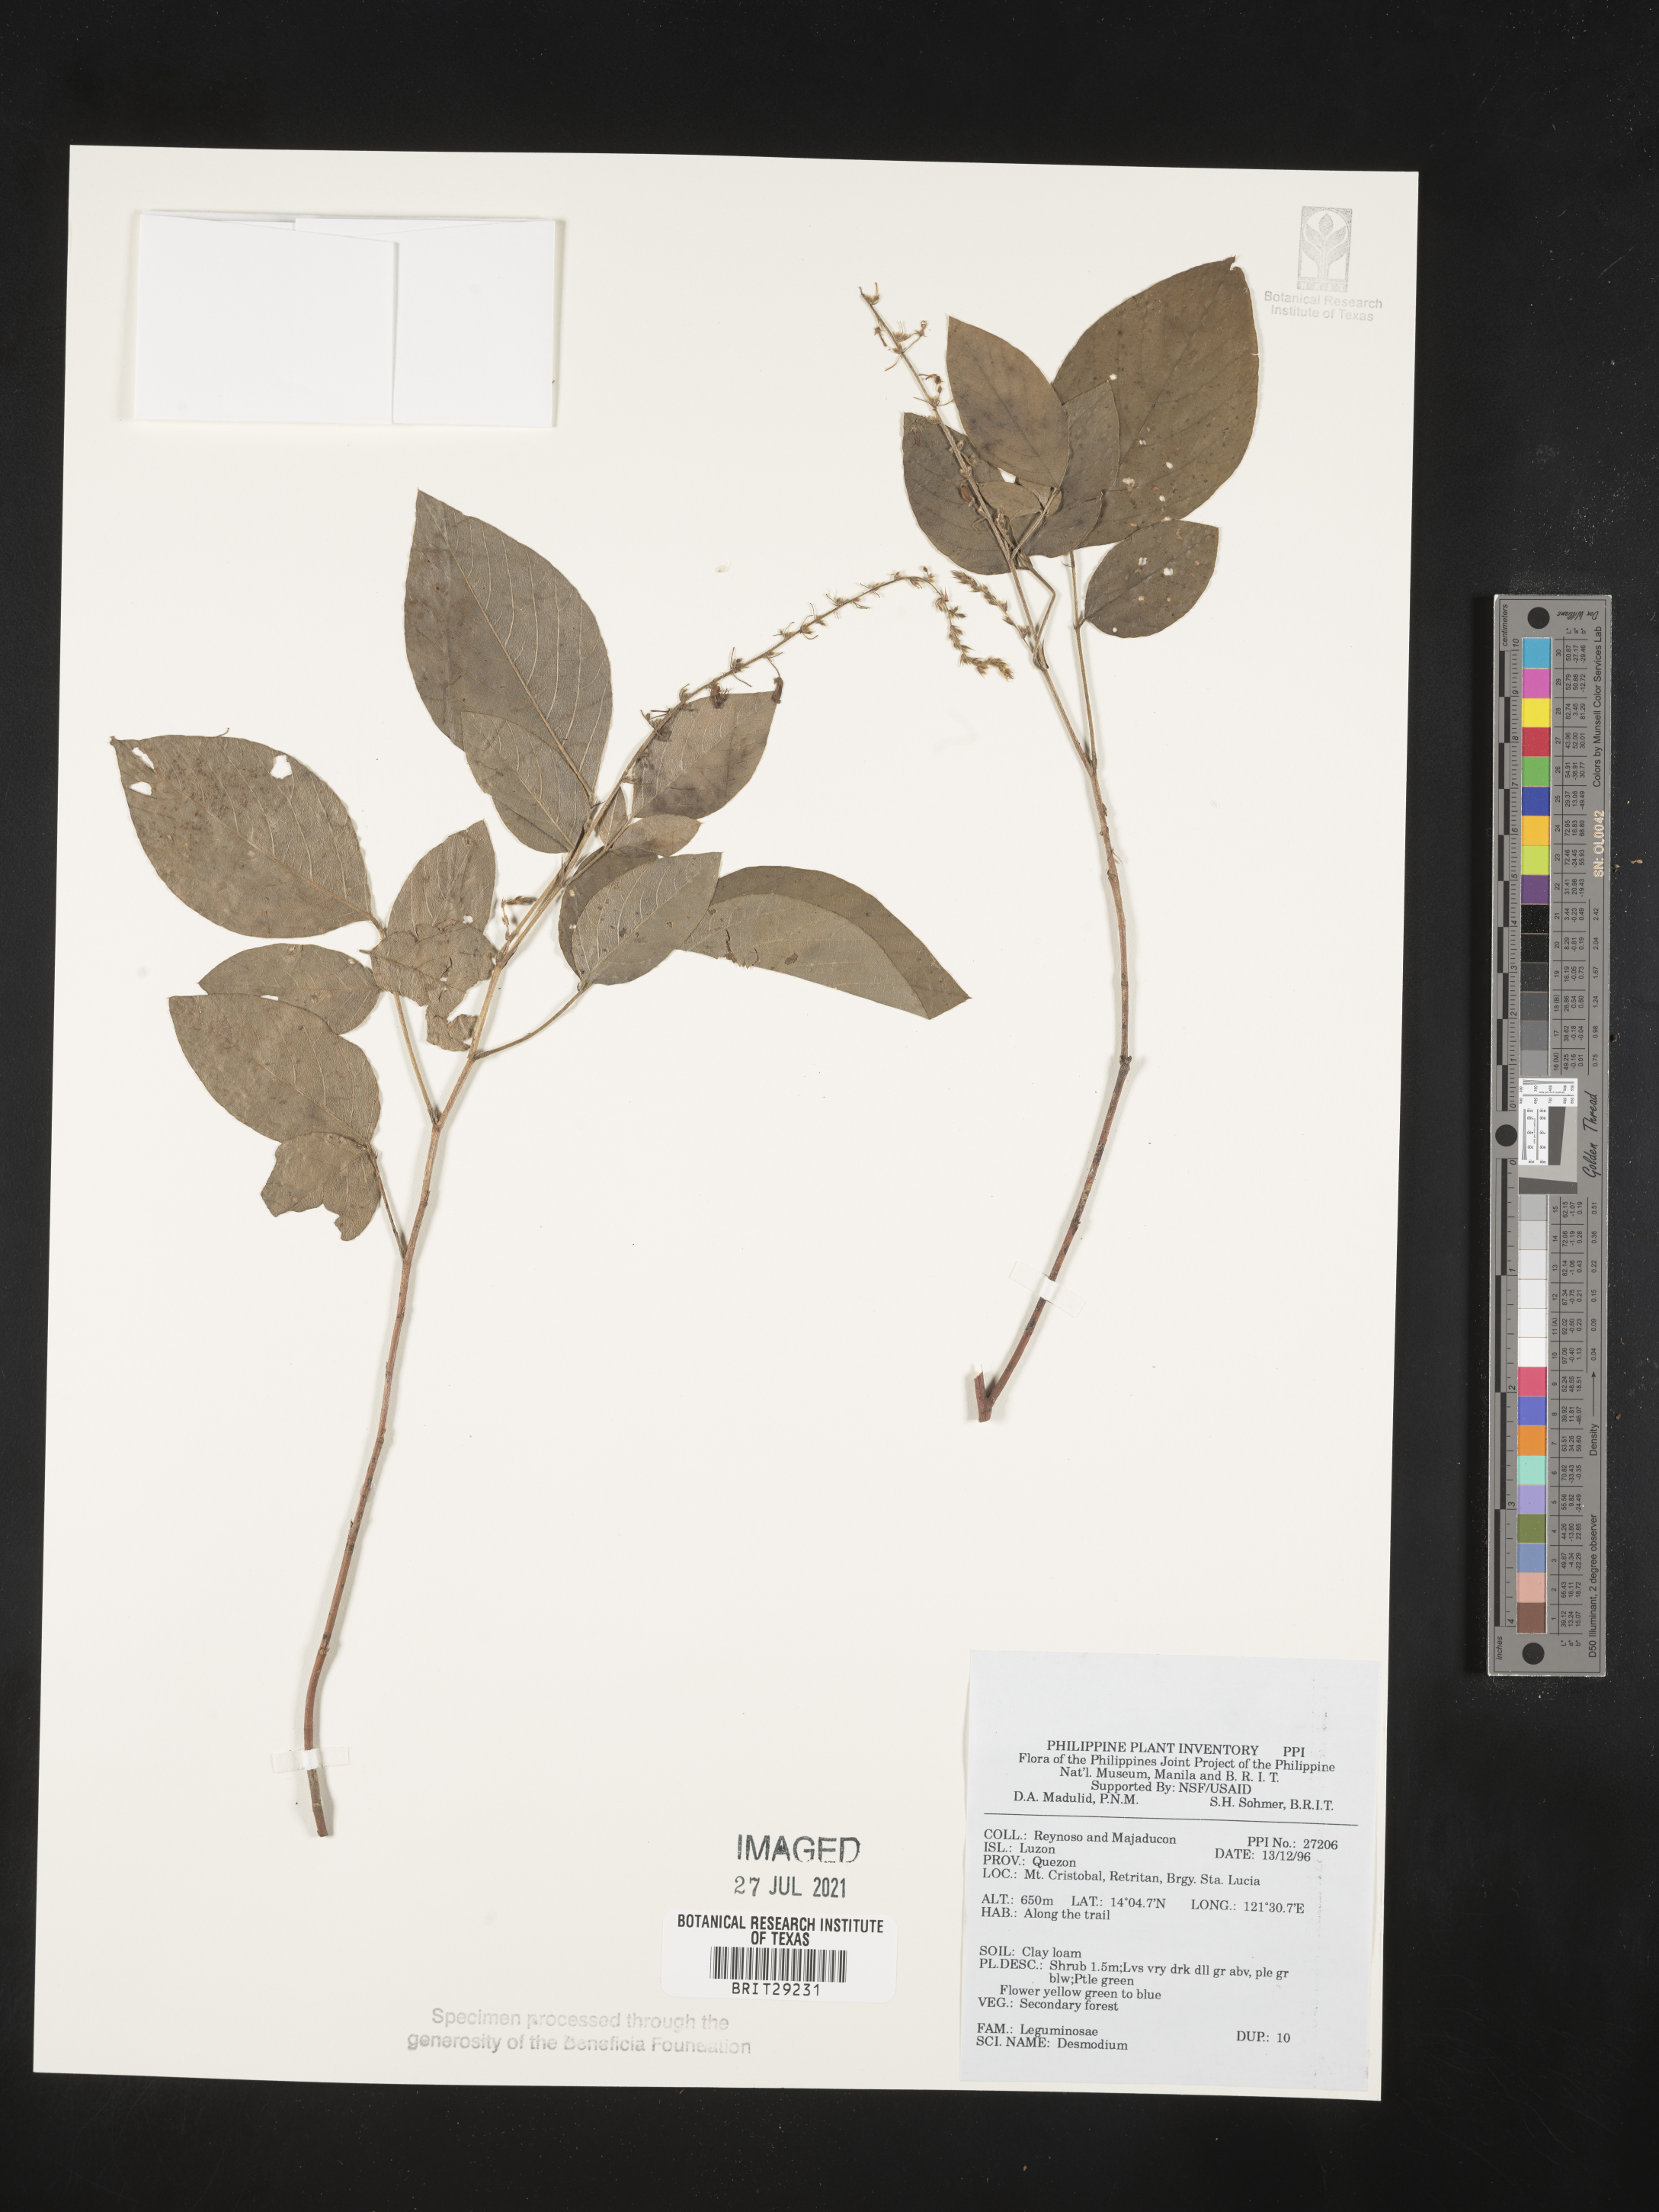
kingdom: Plantae
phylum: Tracheophyta
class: Magnoliopsida
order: Fabales
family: Fabaceae
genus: Desmodium
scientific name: Desmodium
